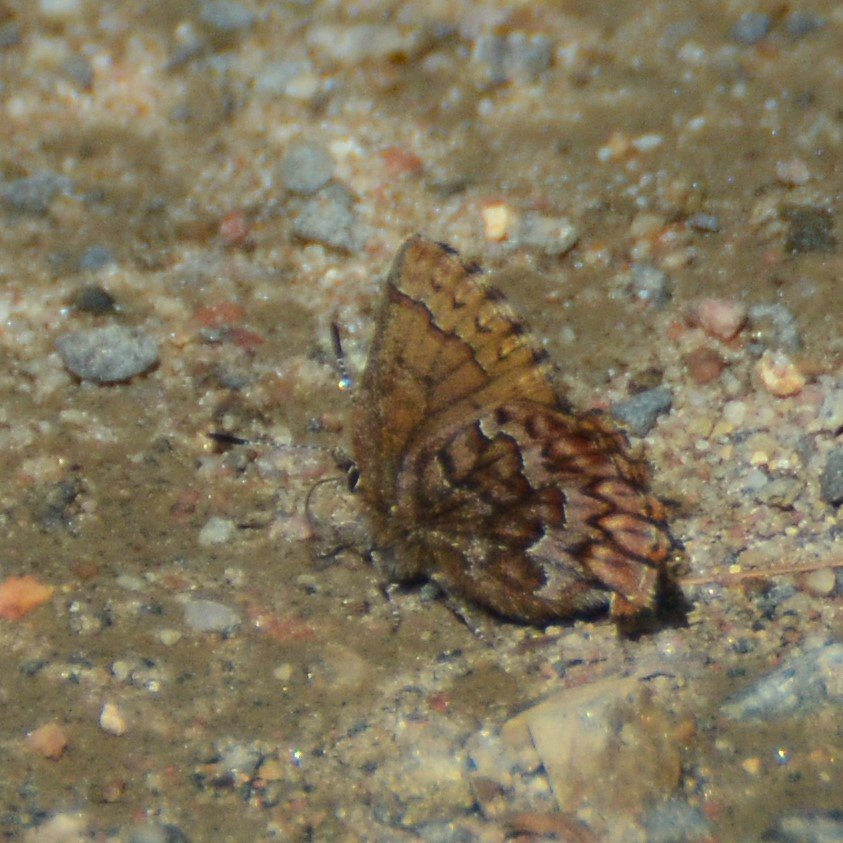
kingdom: Animalia
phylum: Arthropoda
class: Insecta
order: Lepidoptera
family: Lycaenidae
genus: Incisalia
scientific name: Incisalia eryphon
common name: Western Pine Elfin
